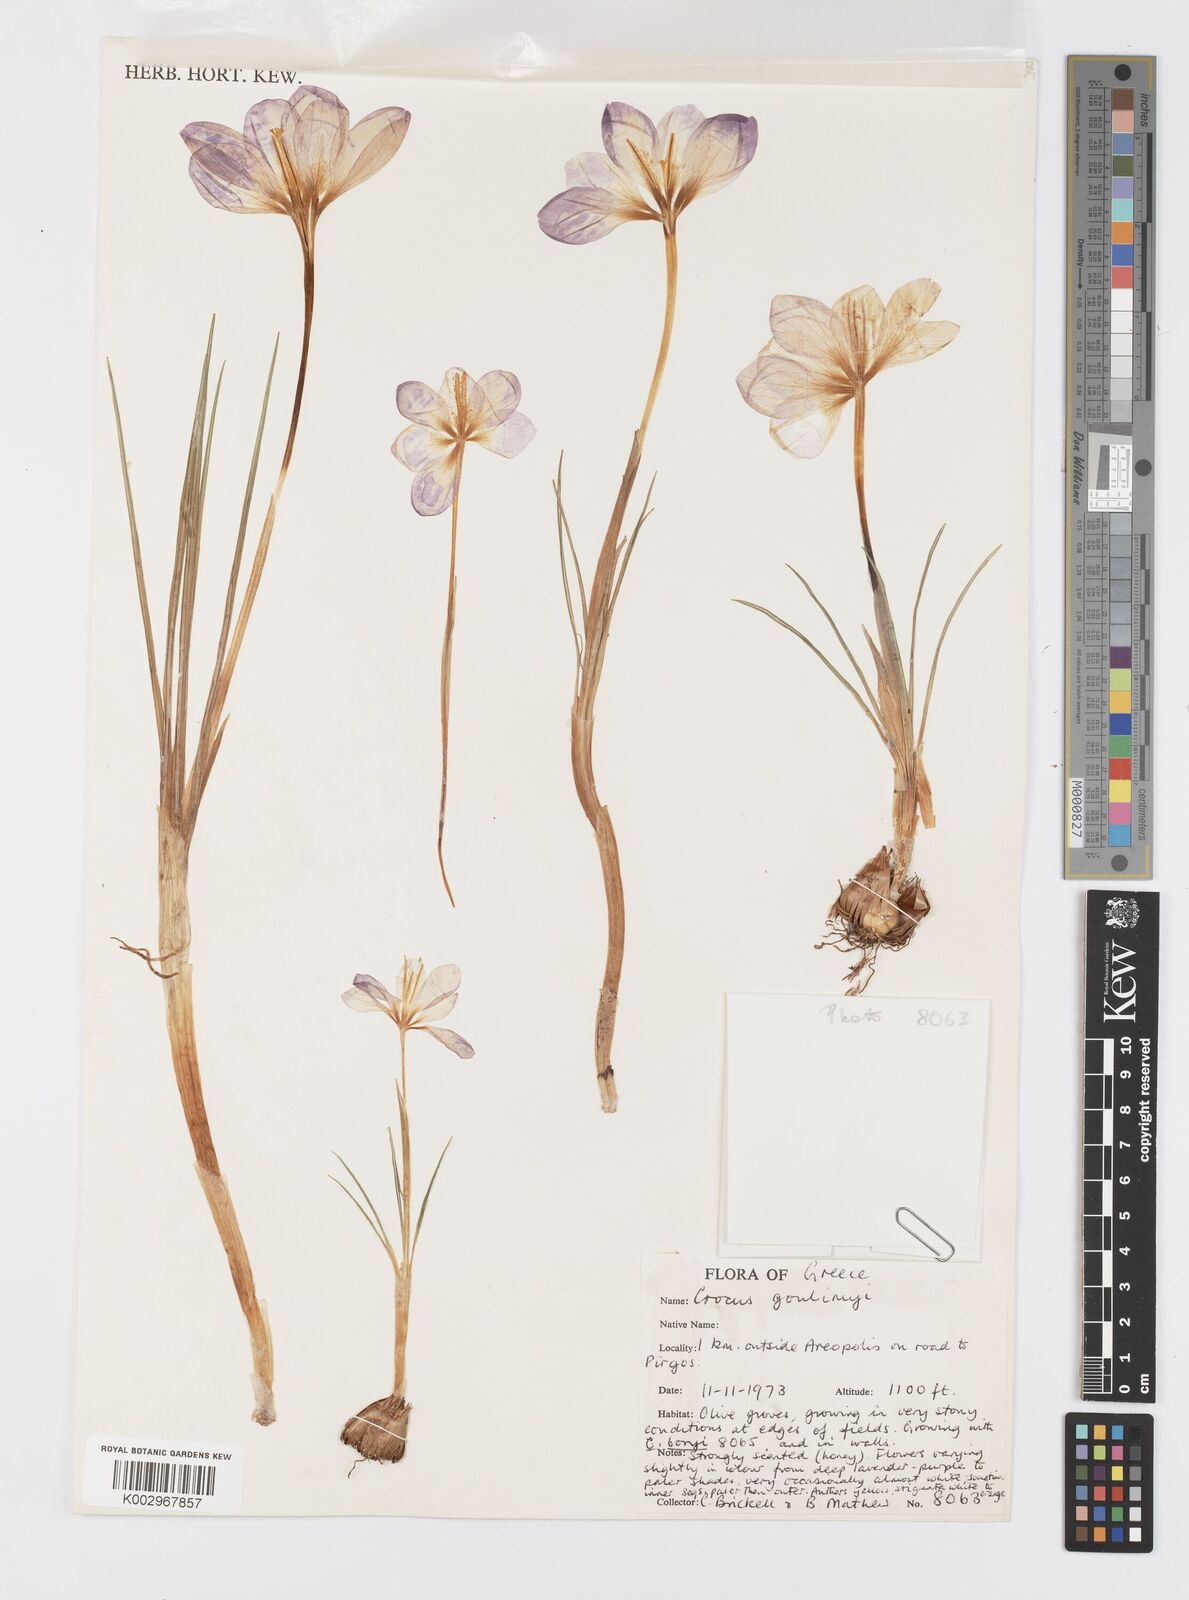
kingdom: Plantae
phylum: Tracheophyta
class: Liliopsida
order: Asparagales
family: Iridaceae
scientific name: Iridaceae
